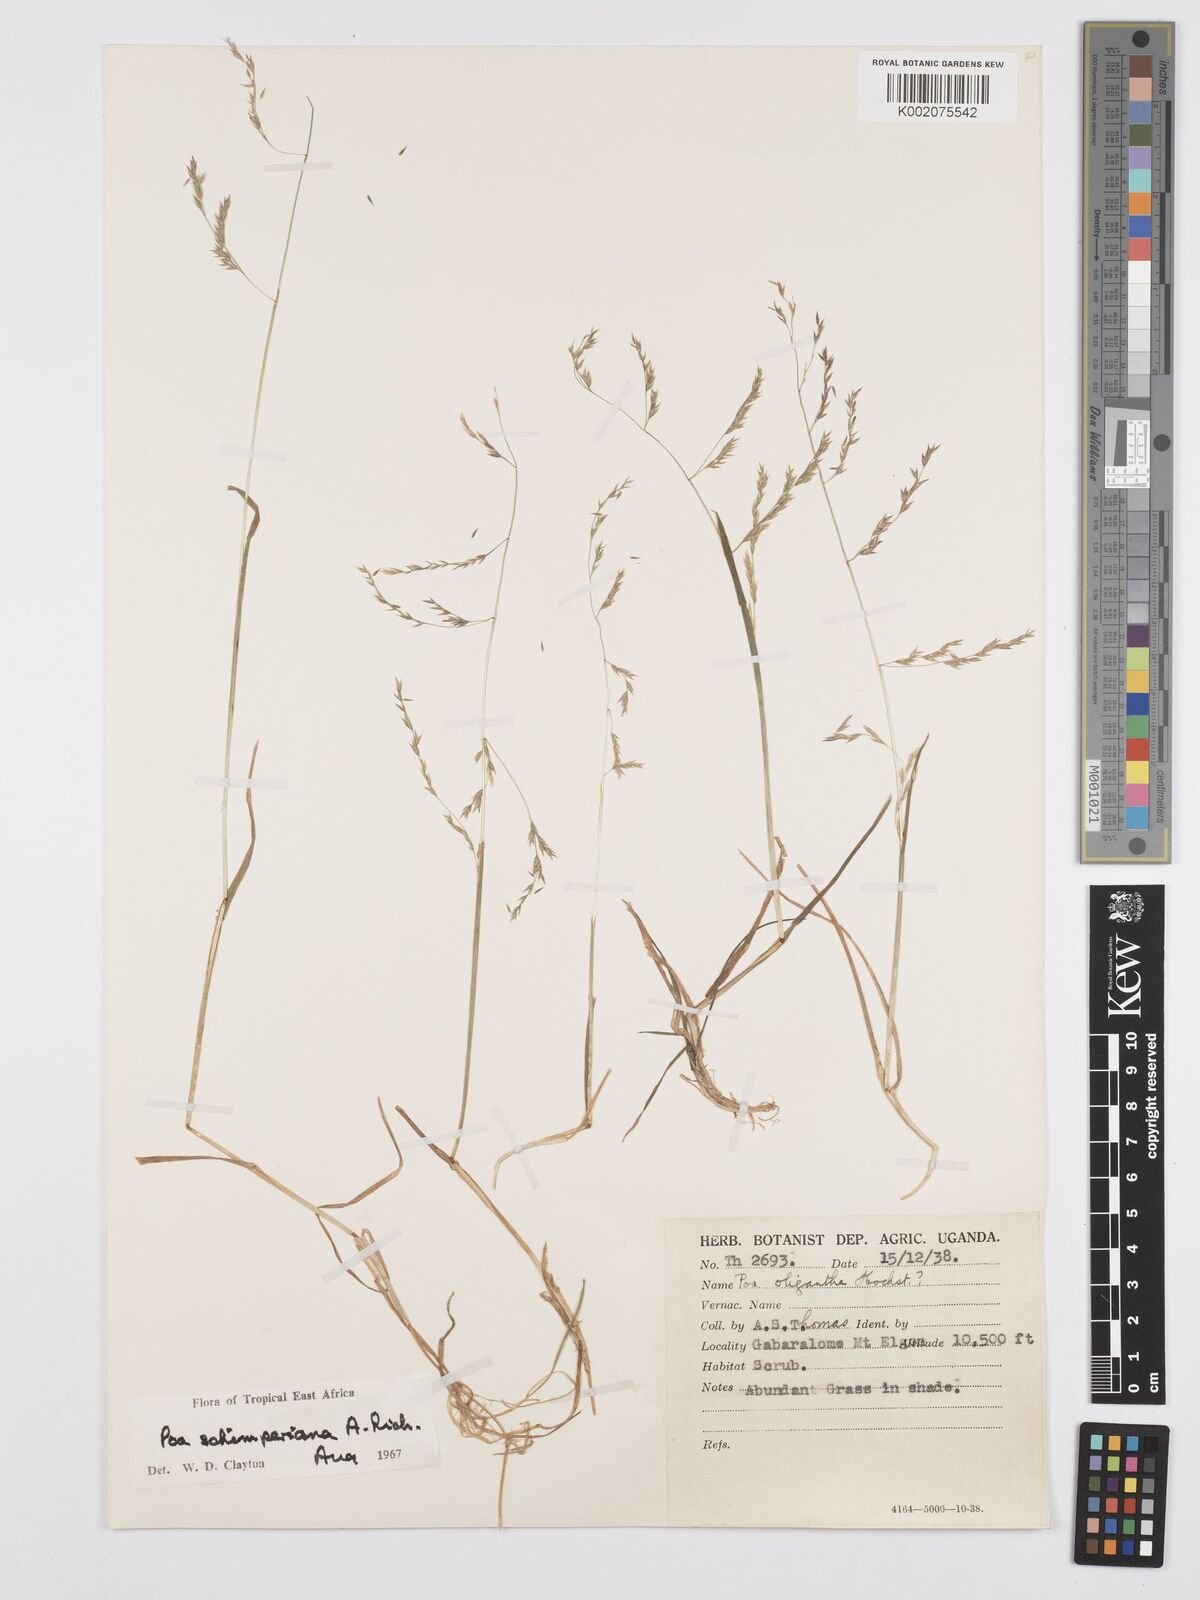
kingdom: Plantae
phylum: Tracheophyta
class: Liliopsida
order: Poales
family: Poaceae
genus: Poa
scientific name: Poa schimperiana
